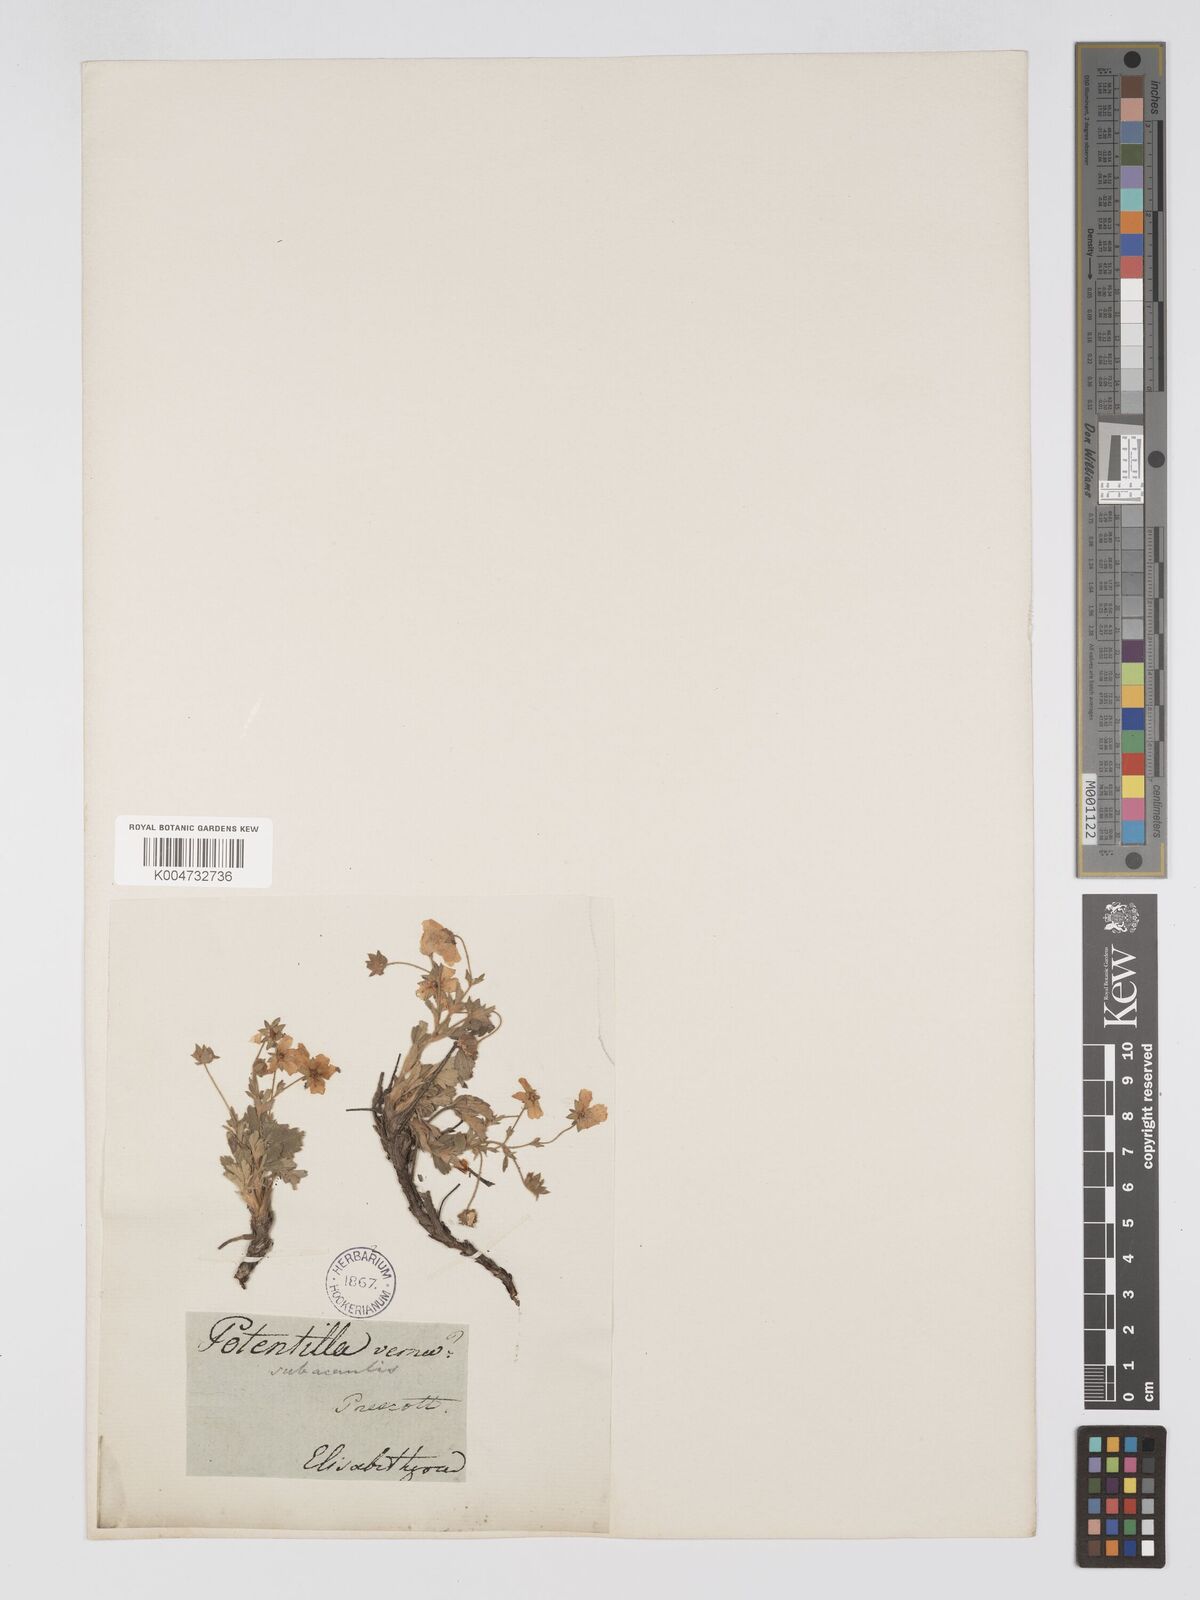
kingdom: Plantae
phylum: Tracheophyta
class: Magnoliopsida
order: Rosales
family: Rosaceae
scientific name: Rosaceae
